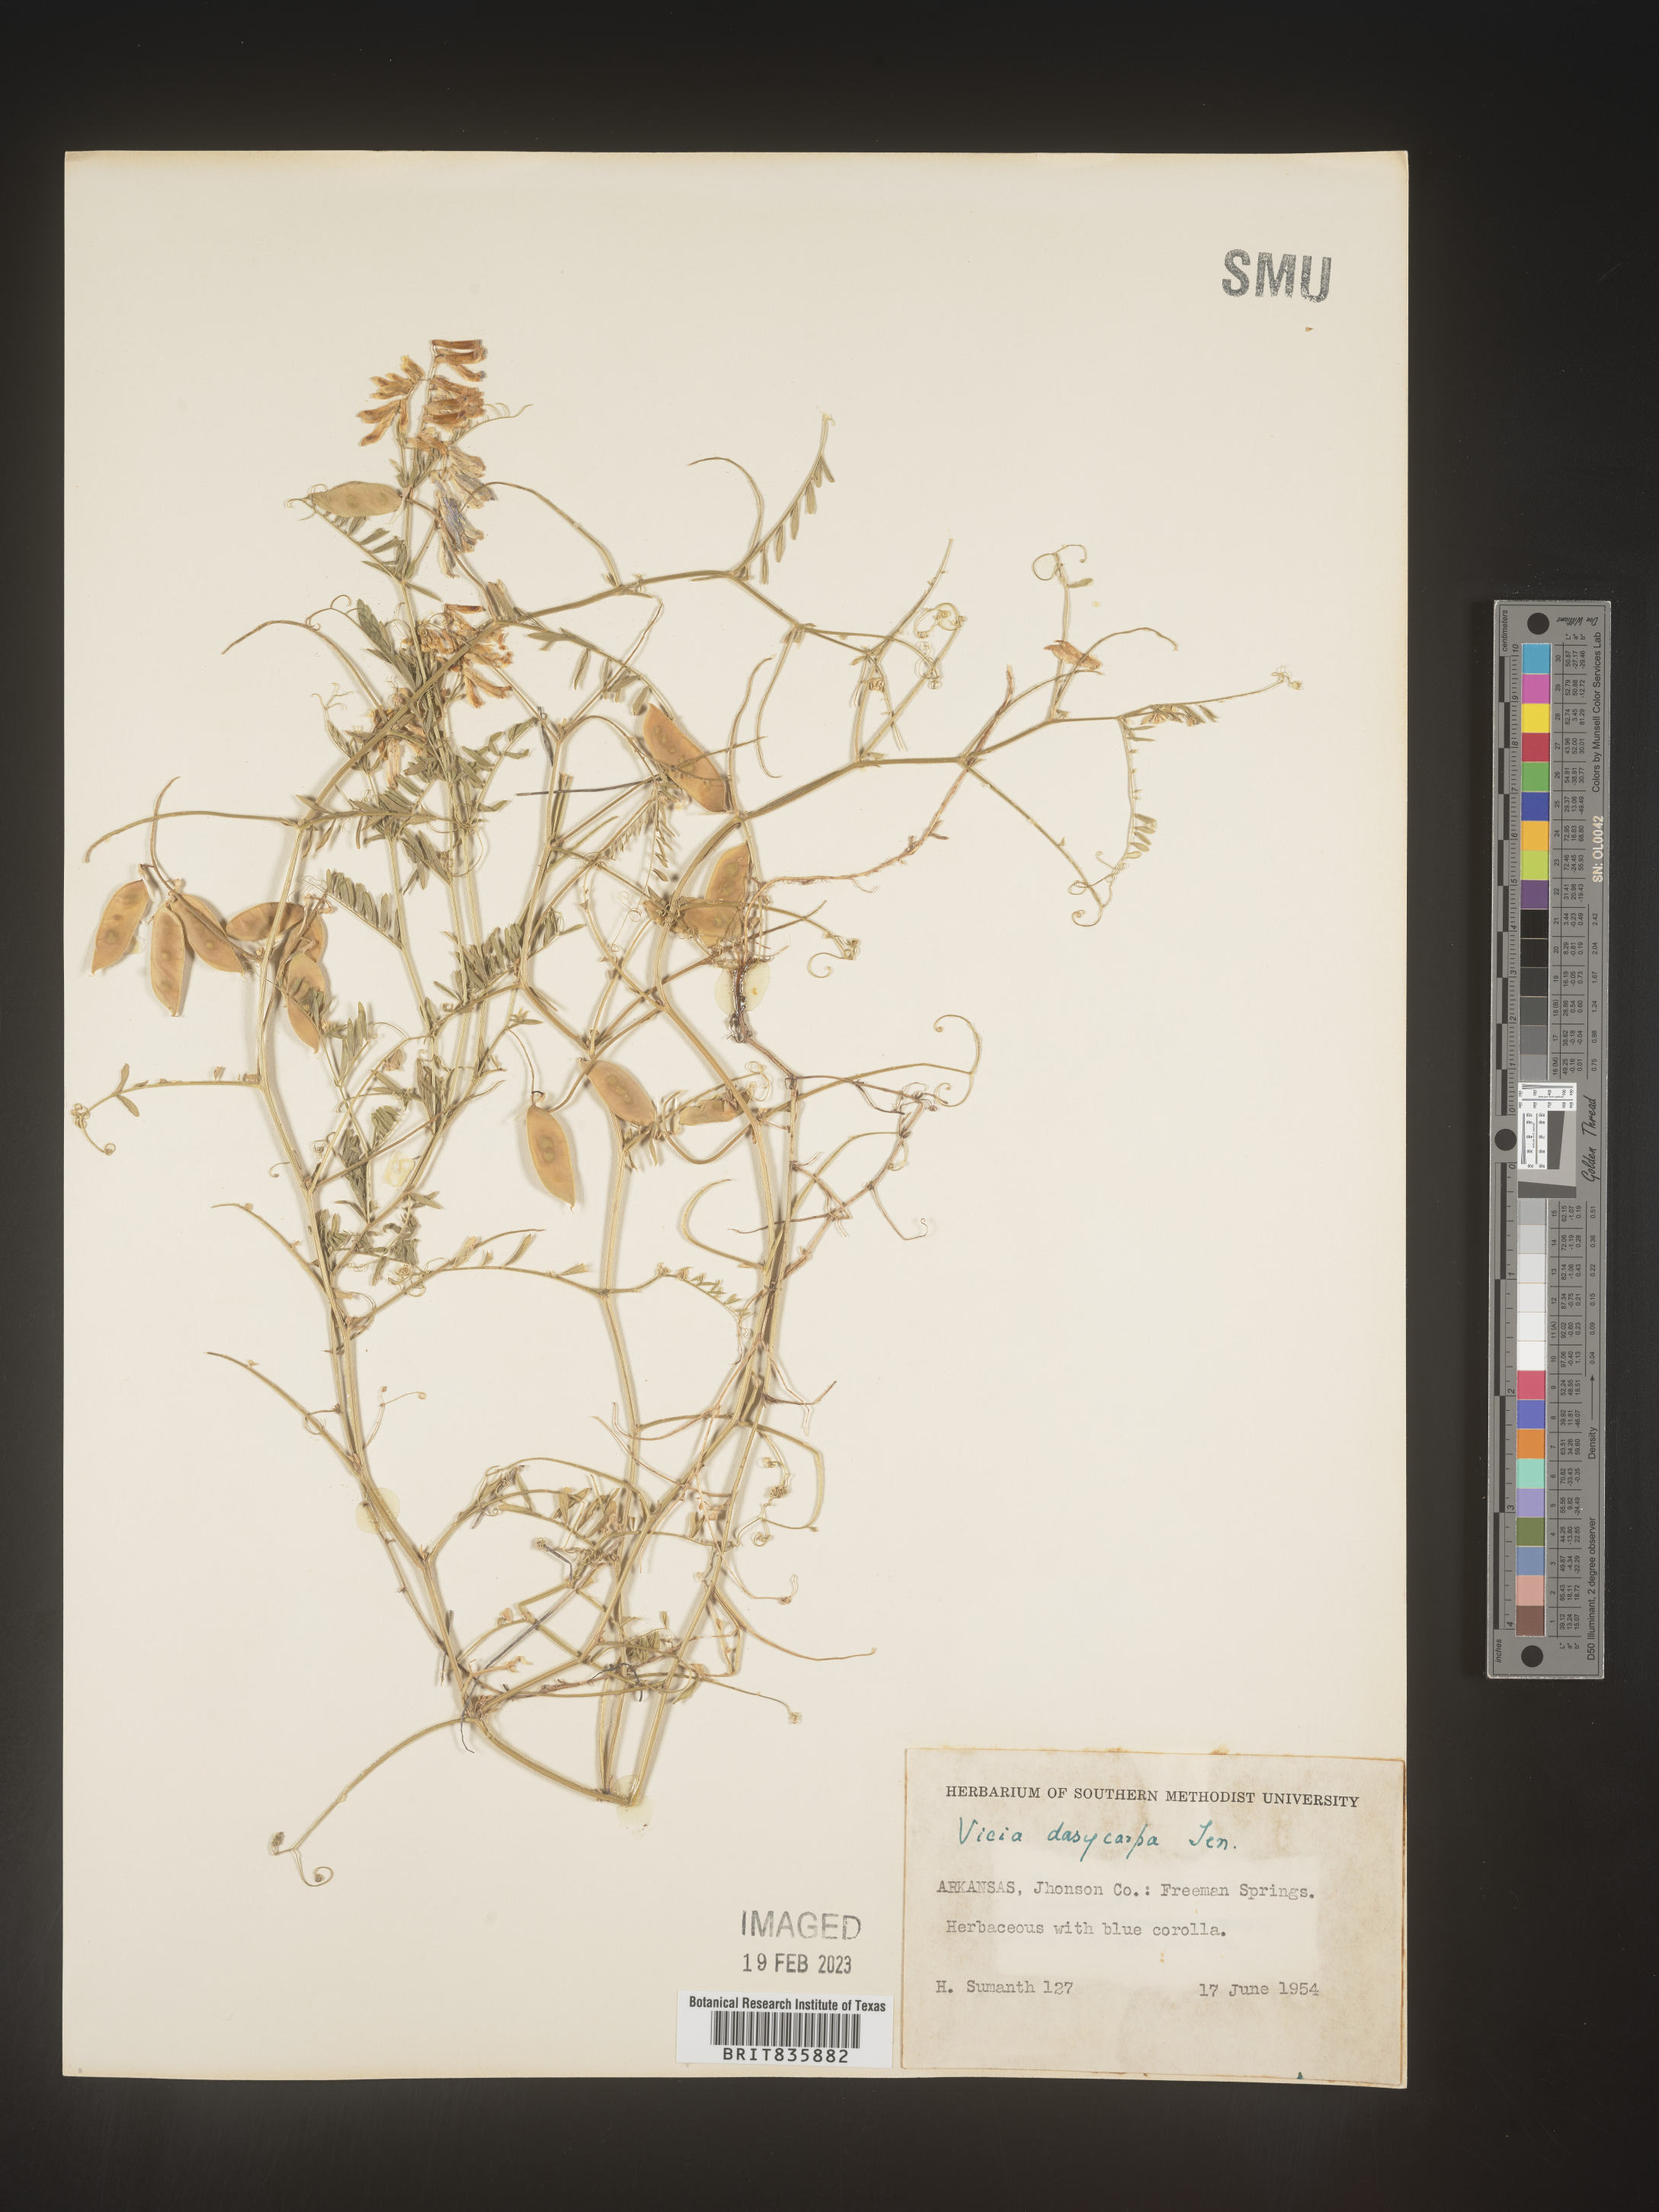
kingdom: Plantae
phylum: Tracheophyta
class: Magnoliopsida
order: Fabales
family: Fabaceae
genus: Vicia
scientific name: Vicia villosa
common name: Fodder vetch
